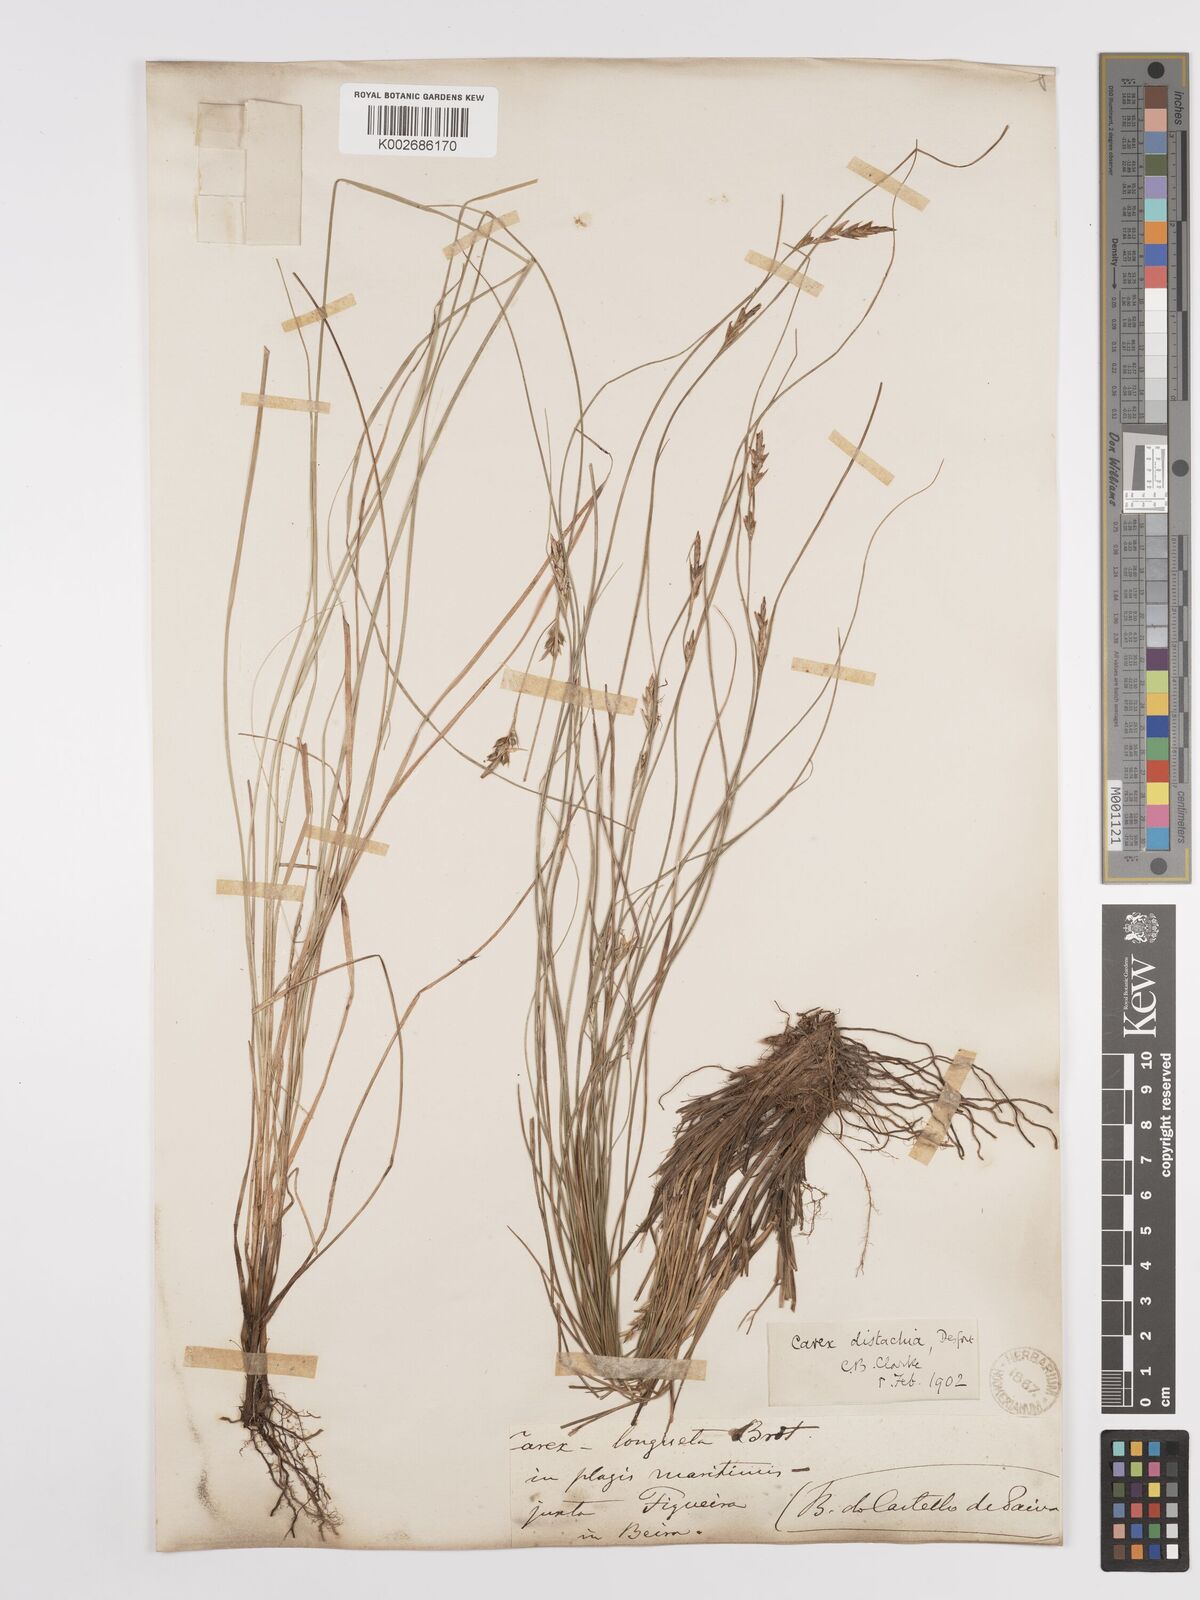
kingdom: Plantae
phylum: Tracheophyta
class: Liliopsida
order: Poales
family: Cyperaceae
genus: Carex
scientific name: Carex distachya
